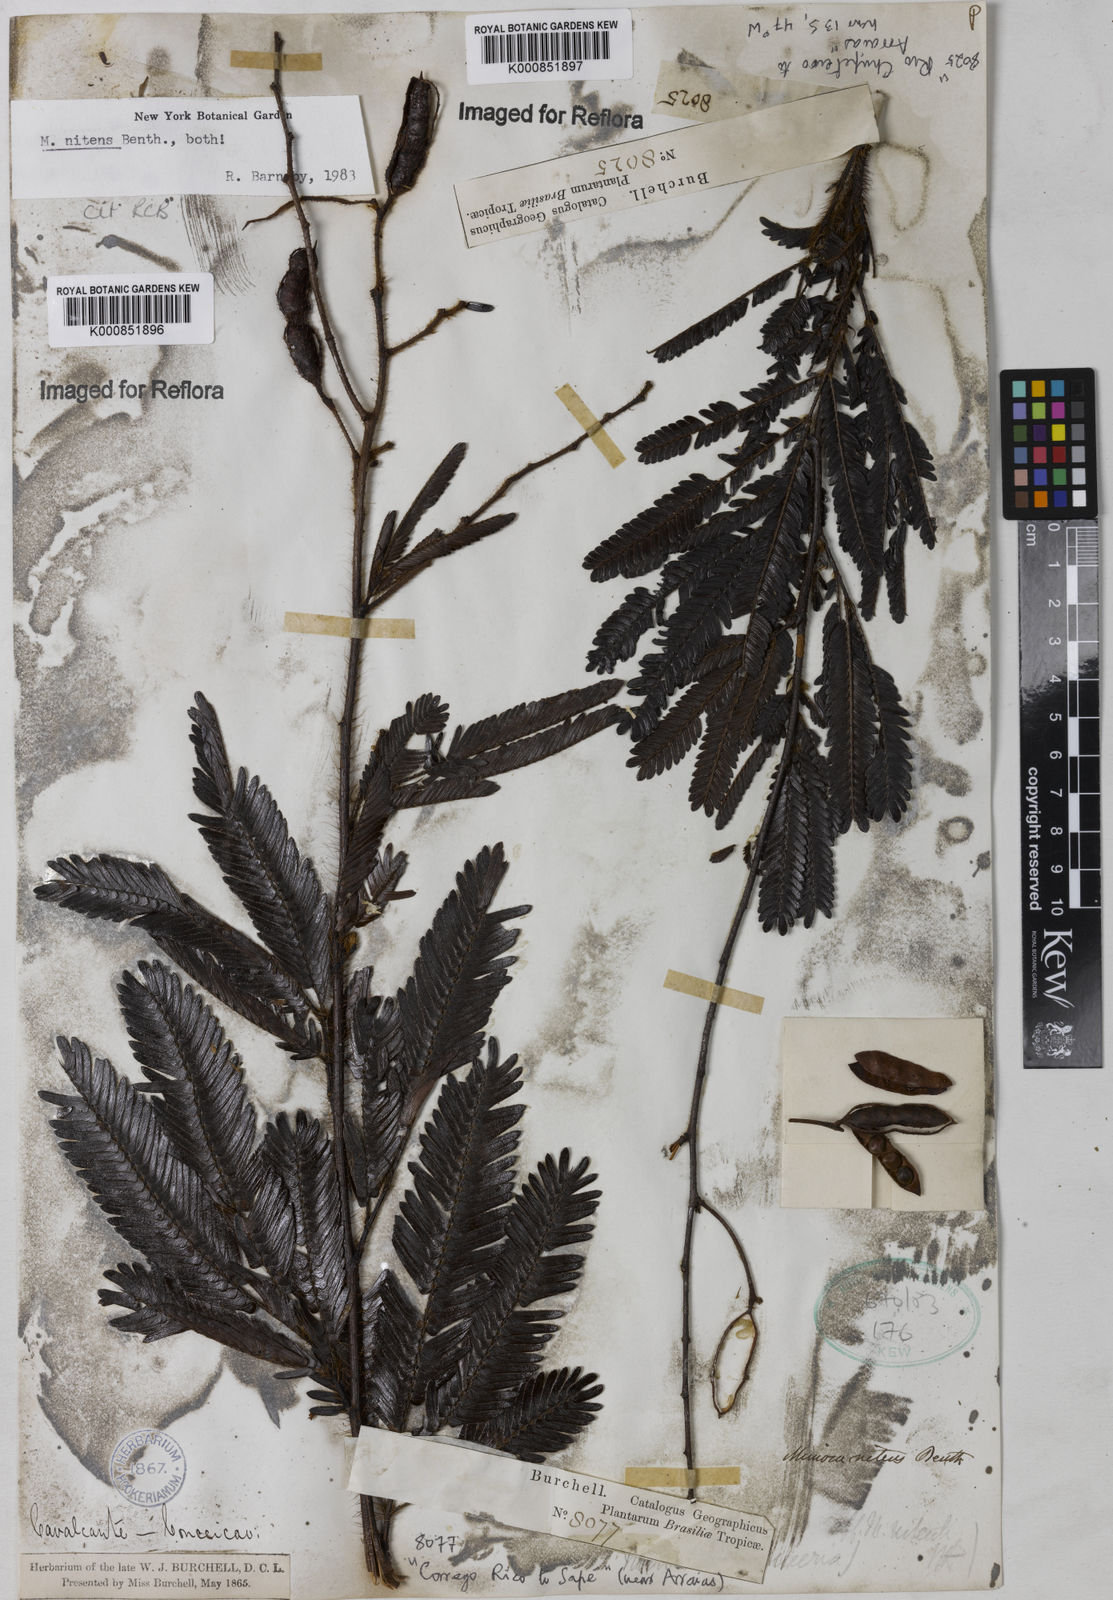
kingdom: Plantae
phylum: Tracheophyta
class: Magnoliopsida
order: Fabales
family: Fabaceae
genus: Mimosa
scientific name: Mimosa nitens
